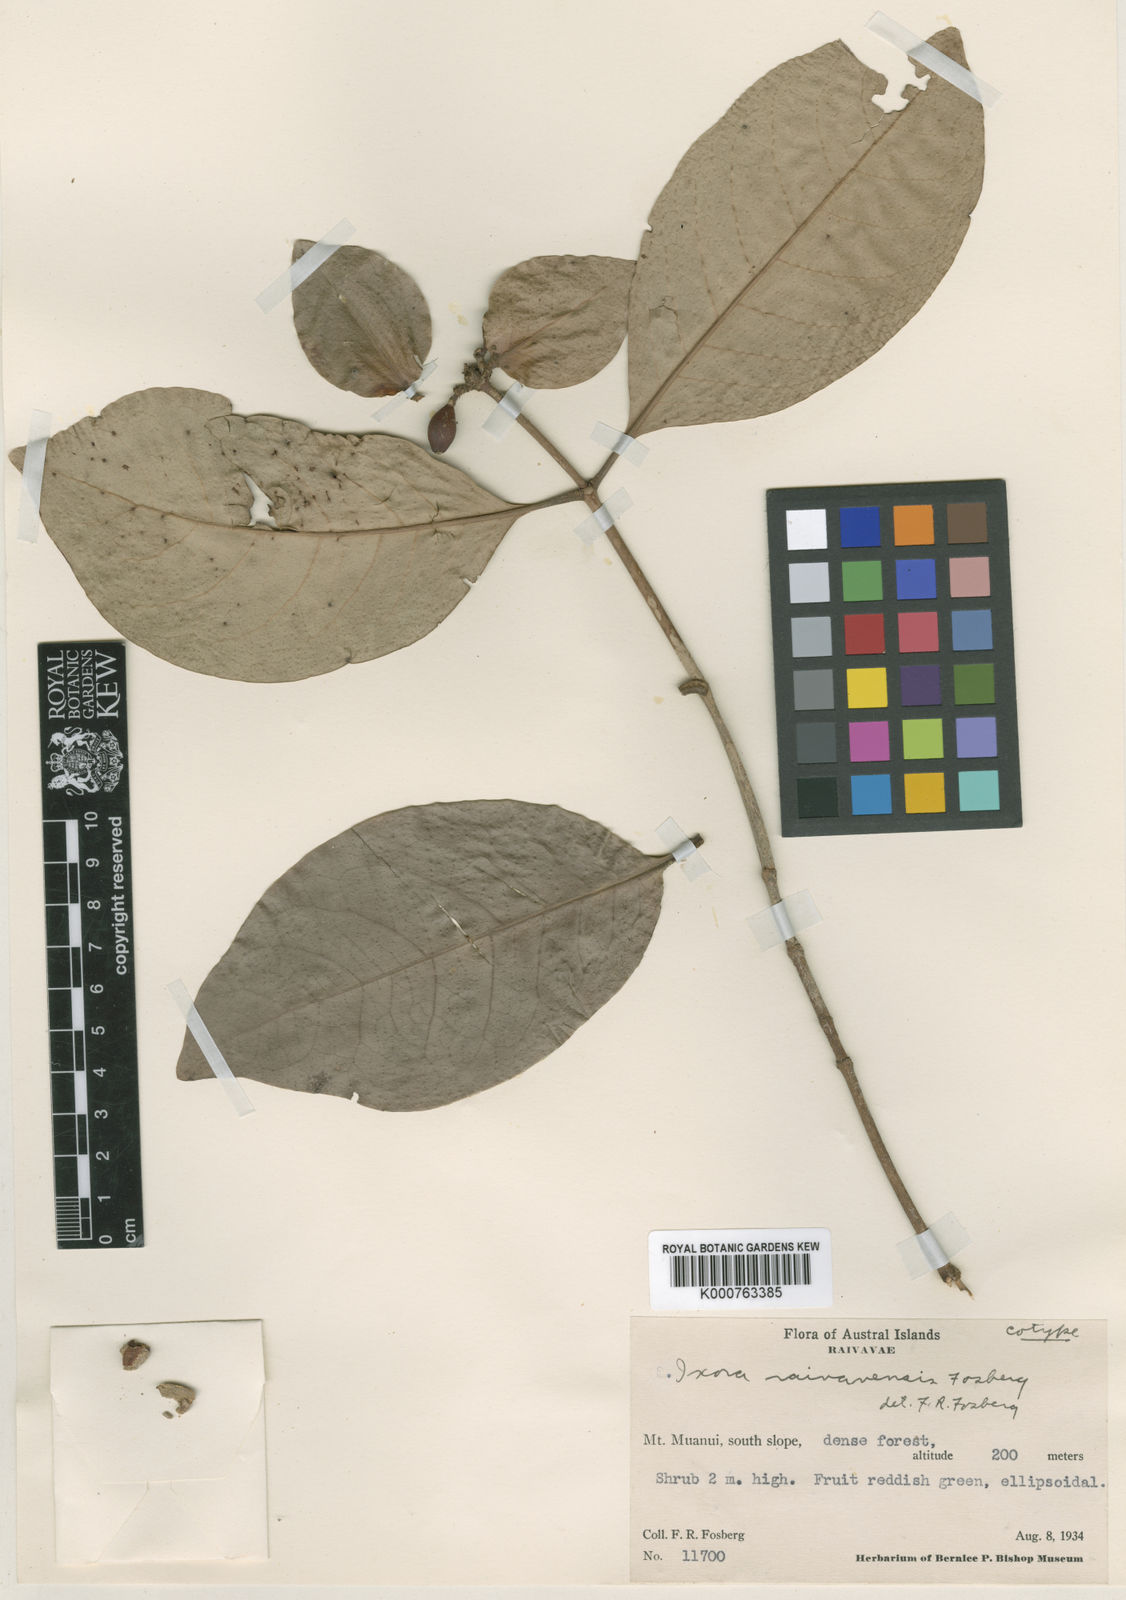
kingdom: Plantae
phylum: Tracheophyta
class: Magnoliopsida
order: Gentianales
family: Rubiaceae
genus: Ixora
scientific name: Ixora raivavaensis
